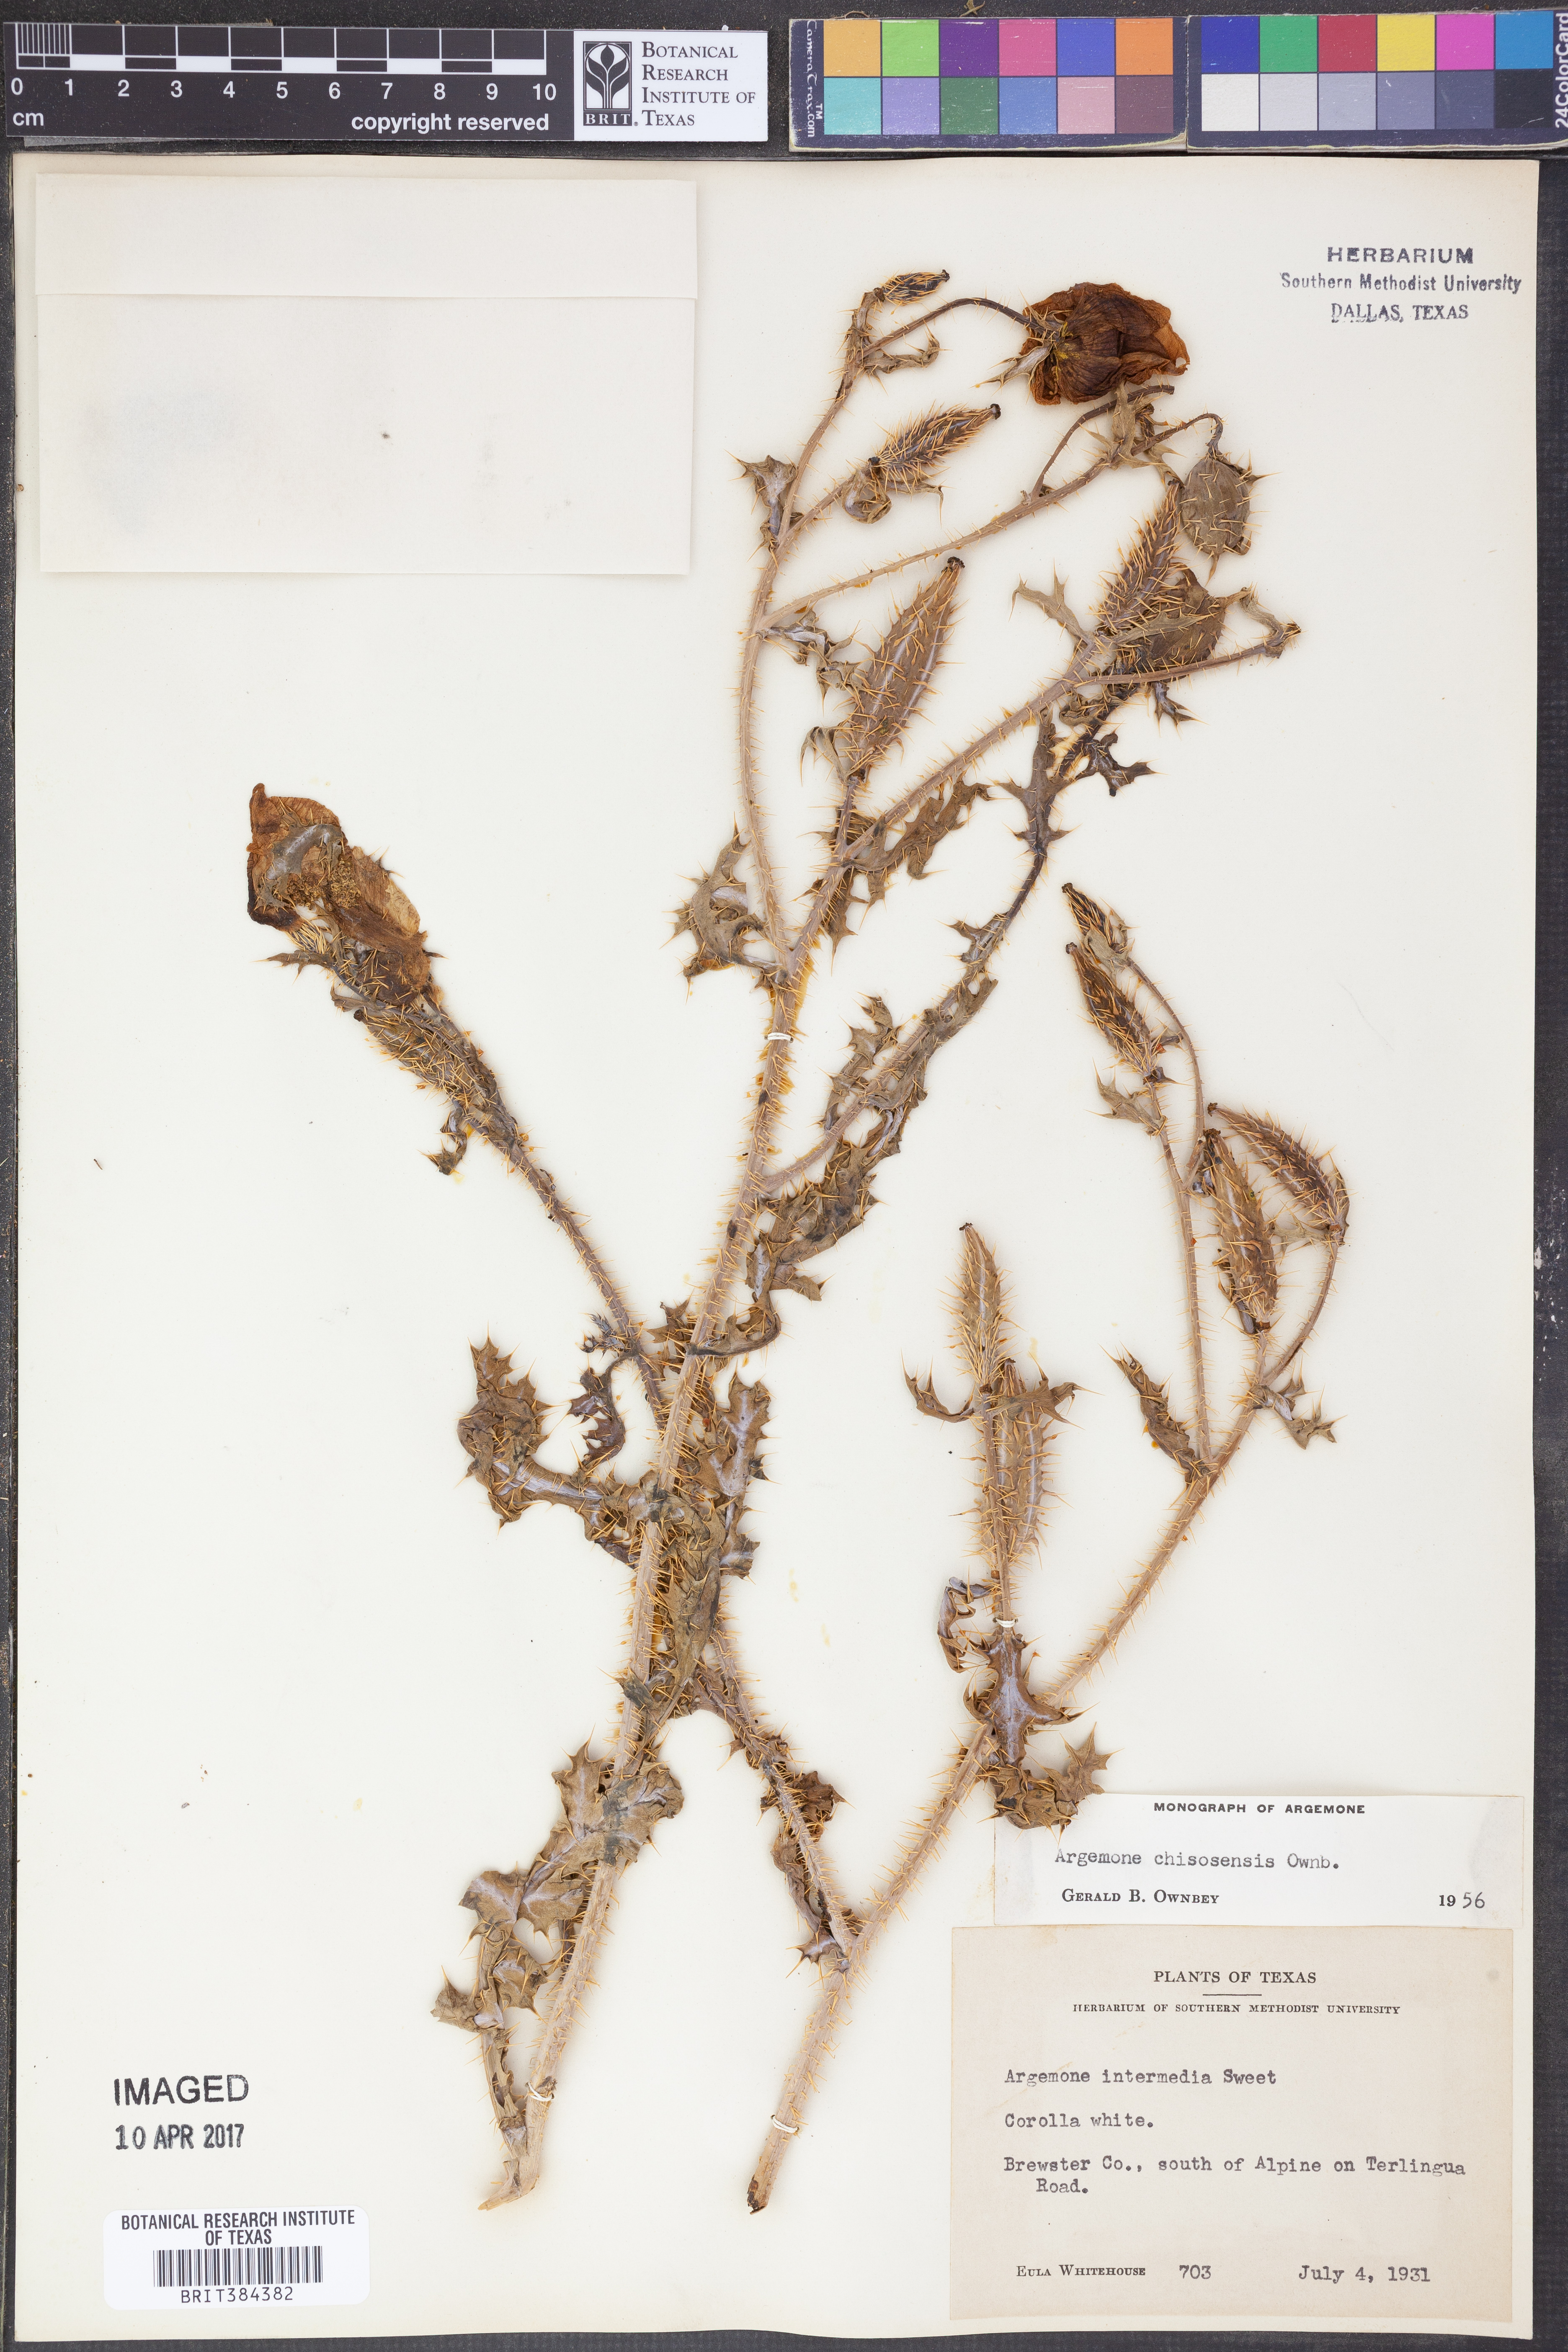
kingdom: Plantae
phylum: Tracheophyta
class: Magnoliopsida
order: Ranunculales
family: Papaveraceae
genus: Argemone
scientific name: Argemone chisosensis
